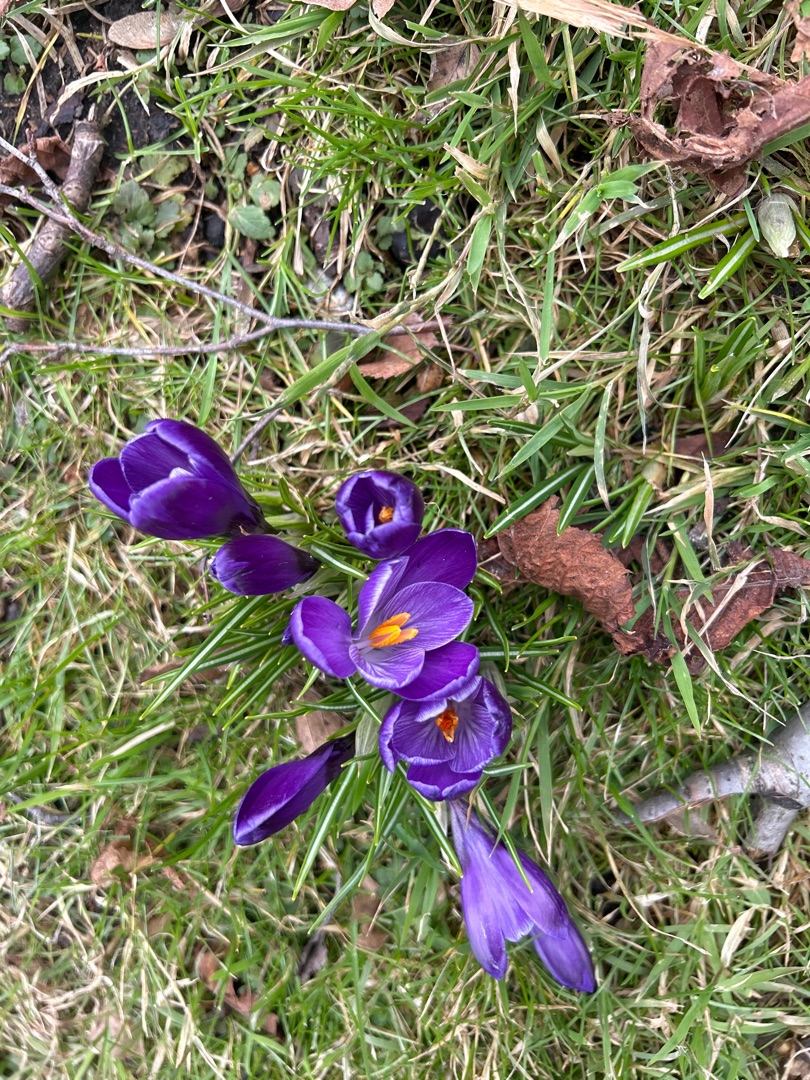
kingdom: Plantae
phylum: Tracheophyta
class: Liliopsida
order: Asparagales
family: Iridaceae
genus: Crocus
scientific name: Crocus vernus
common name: Vår-krokus
